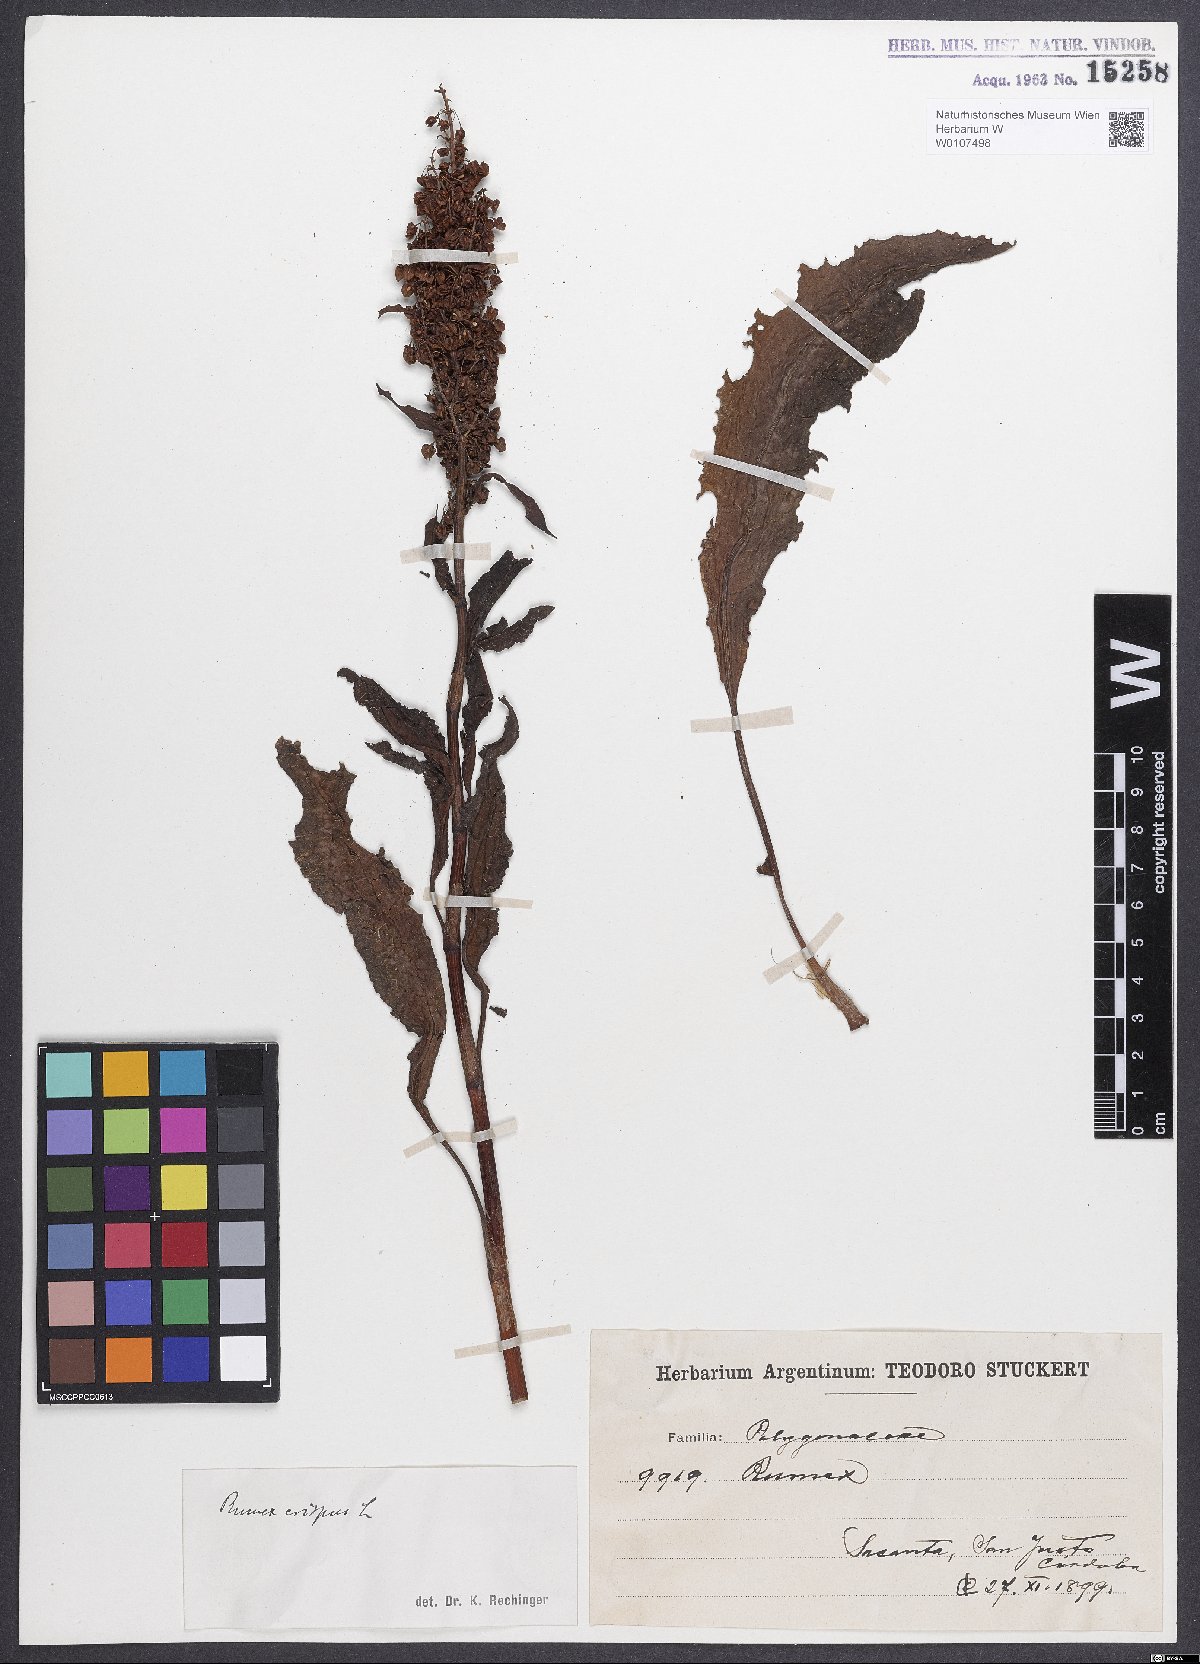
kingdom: Plantae
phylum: Tracheophyta
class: Magnoliopsida
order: Caryophyllales
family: Polygonaceae
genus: Rumex
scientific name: Rumex crispus
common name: Curled dock
